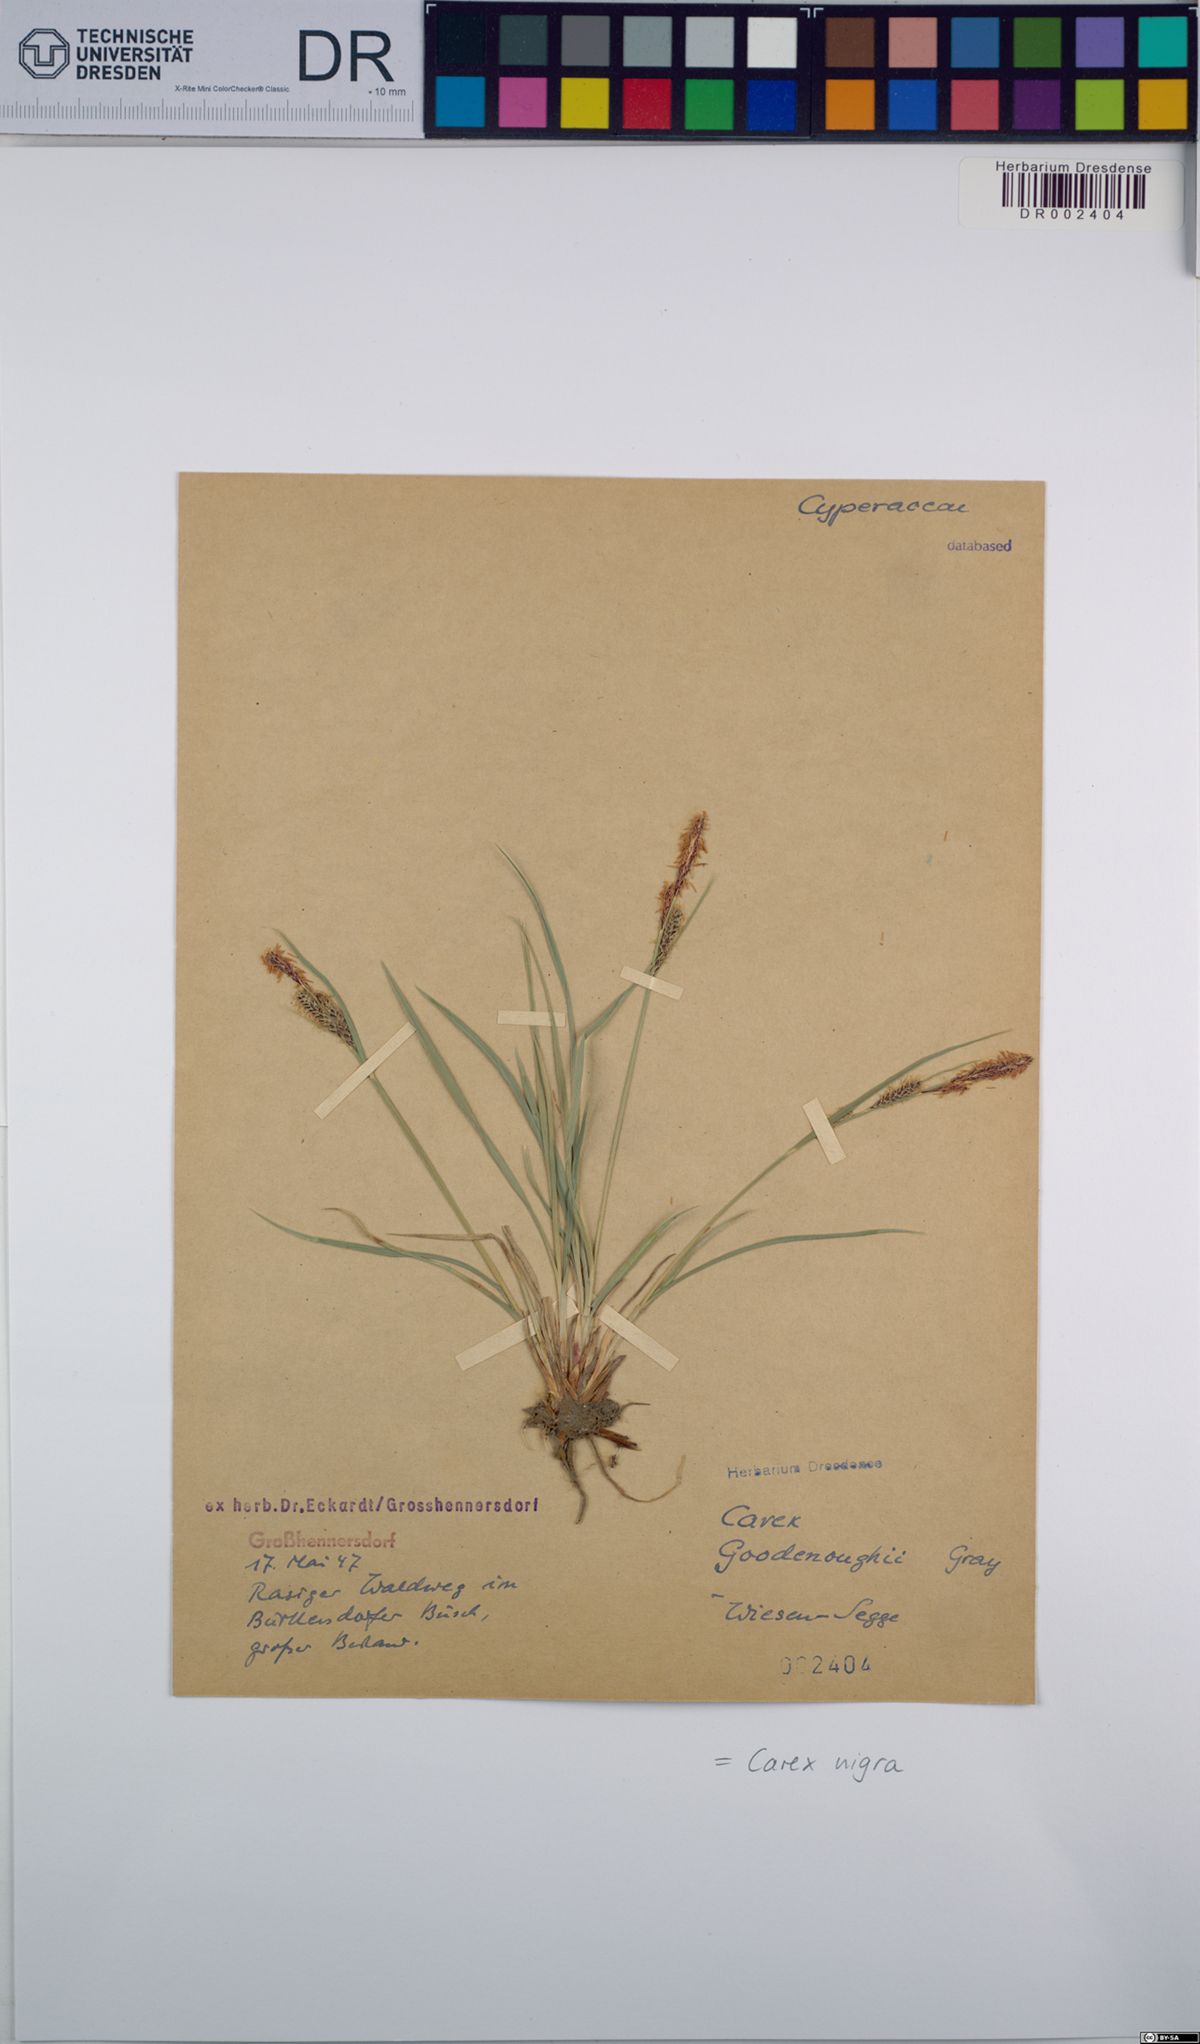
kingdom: Plantae
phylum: Tracheophyta
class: Liliopsida
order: Poales
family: Cyperaceae
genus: Carex
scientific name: Carex nigra
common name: Common sedge
